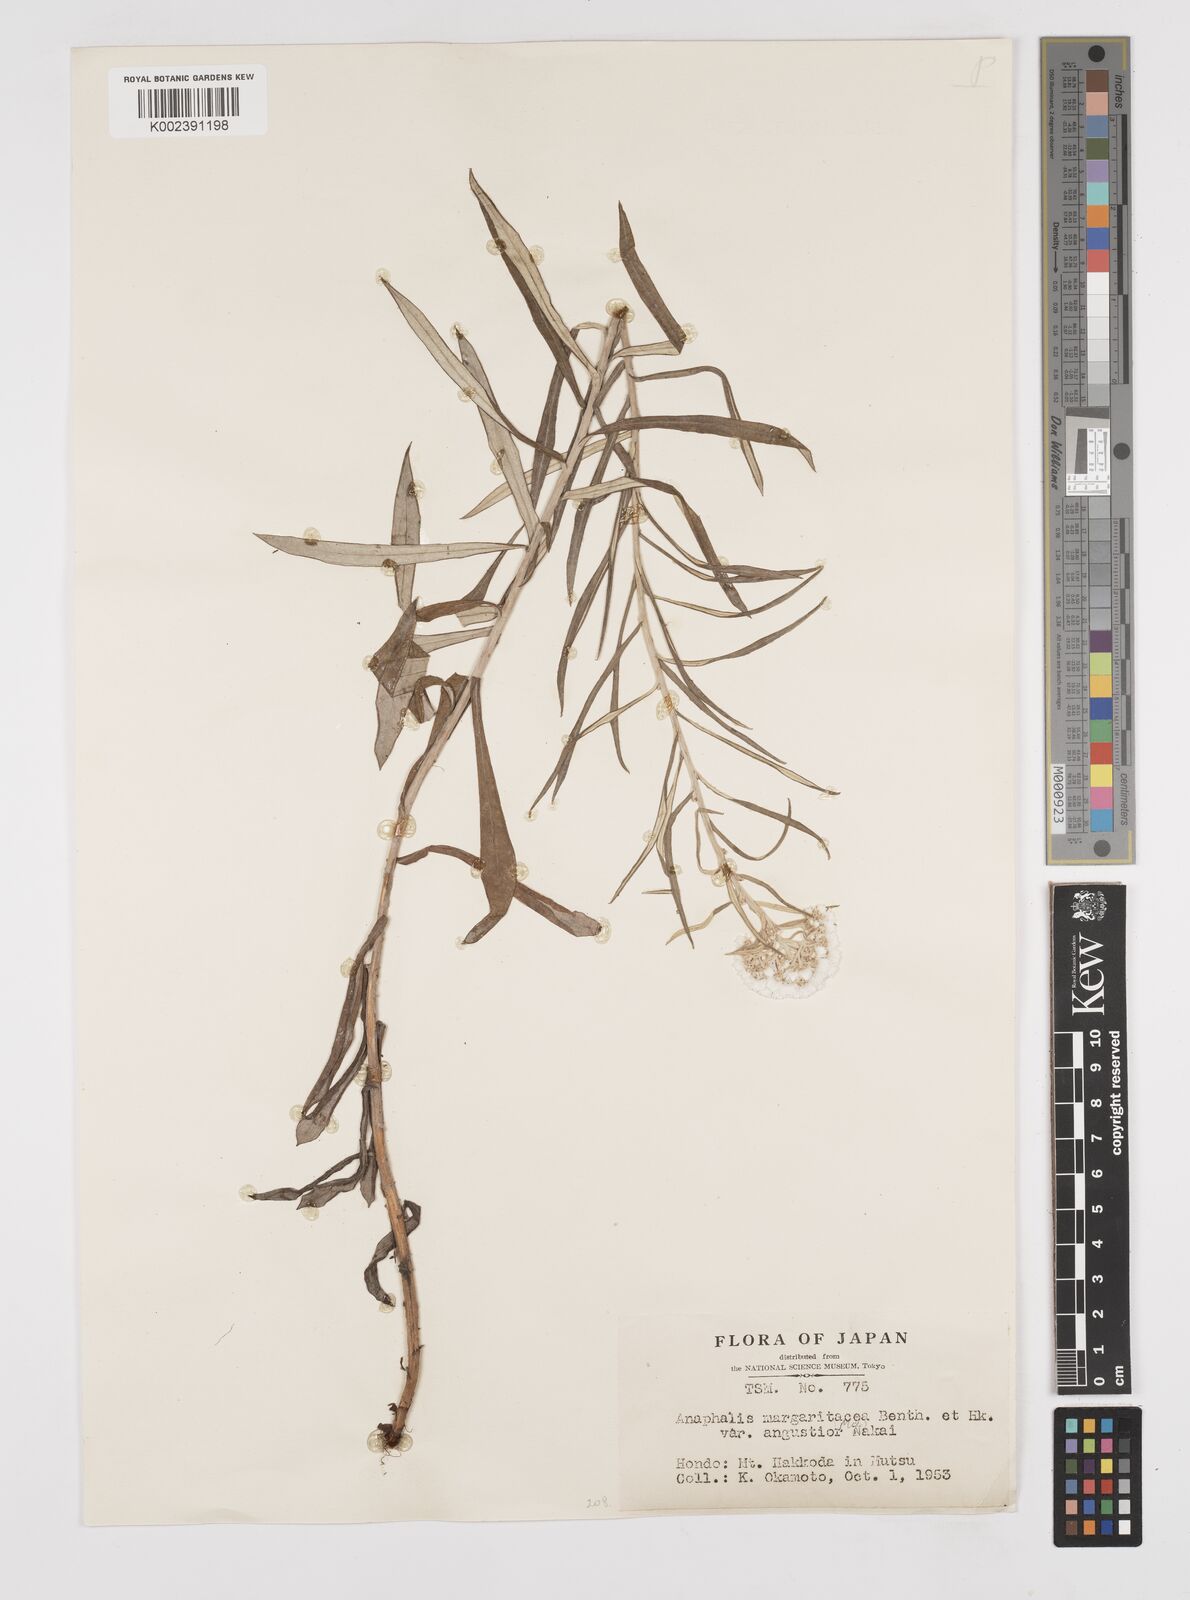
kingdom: Plantae
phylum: Tracheophyta
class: Magnoliopsida
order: Asterales
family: Asteraceae
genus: Anaphalis
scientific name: Anaphalis margaritacea
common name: Pearly everlasting
